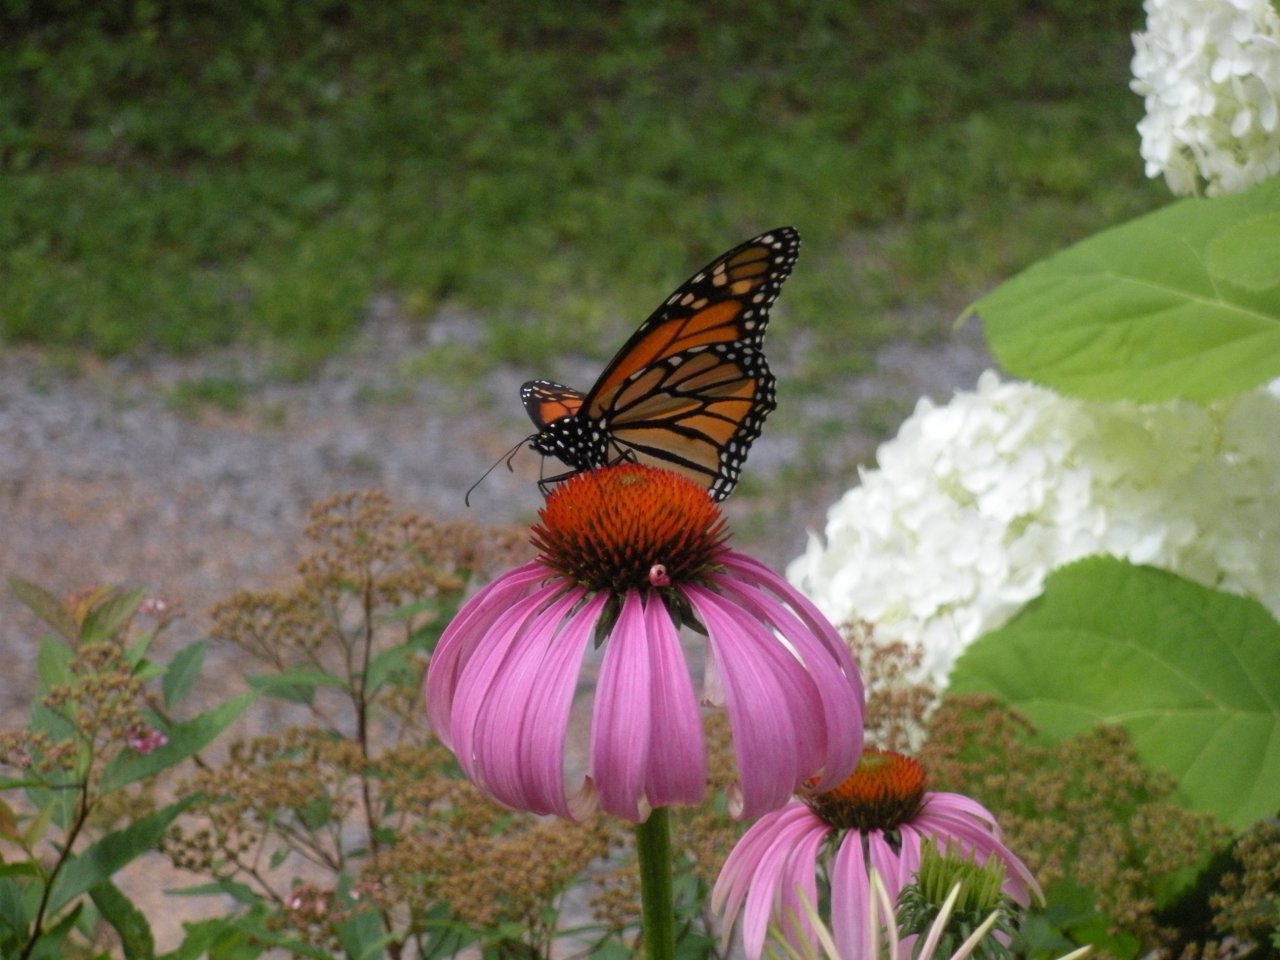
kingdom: Animalia
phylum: Arthropoda
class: Insecta
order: Lepidoptera
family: Nymphalidae
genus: Danaus
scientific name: Danaus plexippus
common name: Monarch
